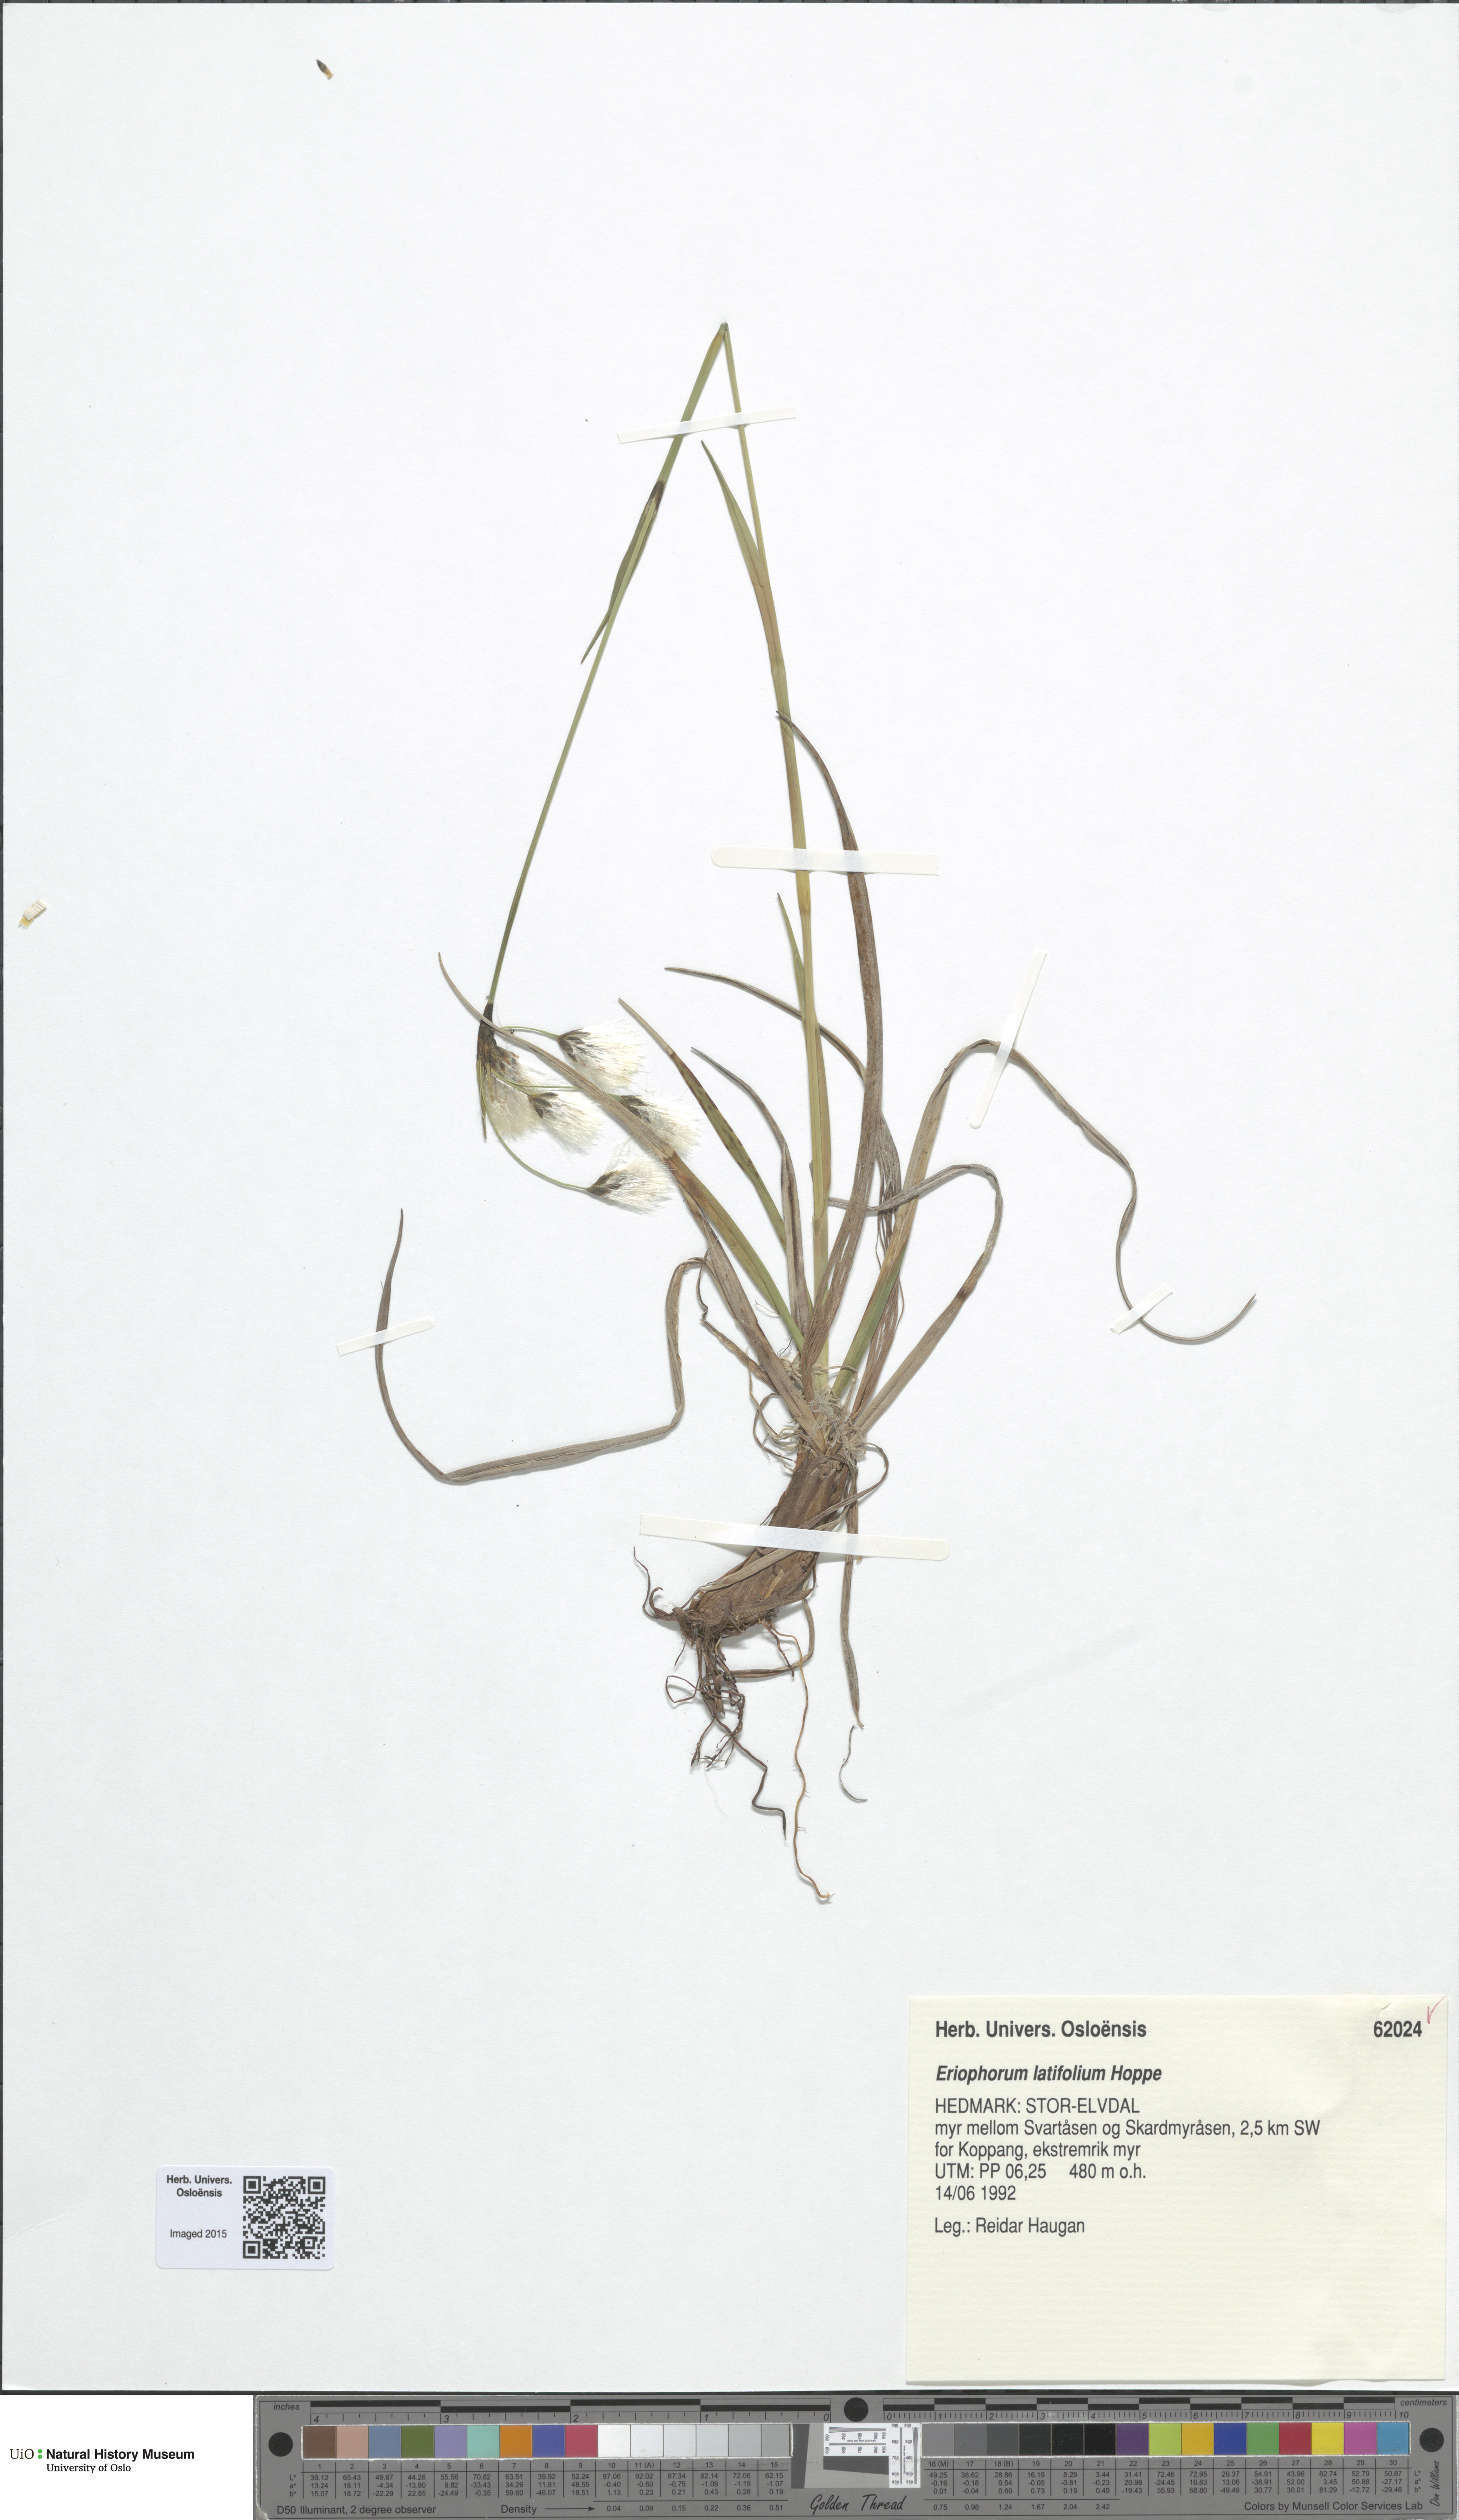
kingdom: Plantae
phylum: Tracheophyta
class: Liliopsida
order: Poales
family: Cyperaceae
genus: Eriophorum
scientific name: Eriophorum latifolium
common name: Broad-leaved cottongrass
